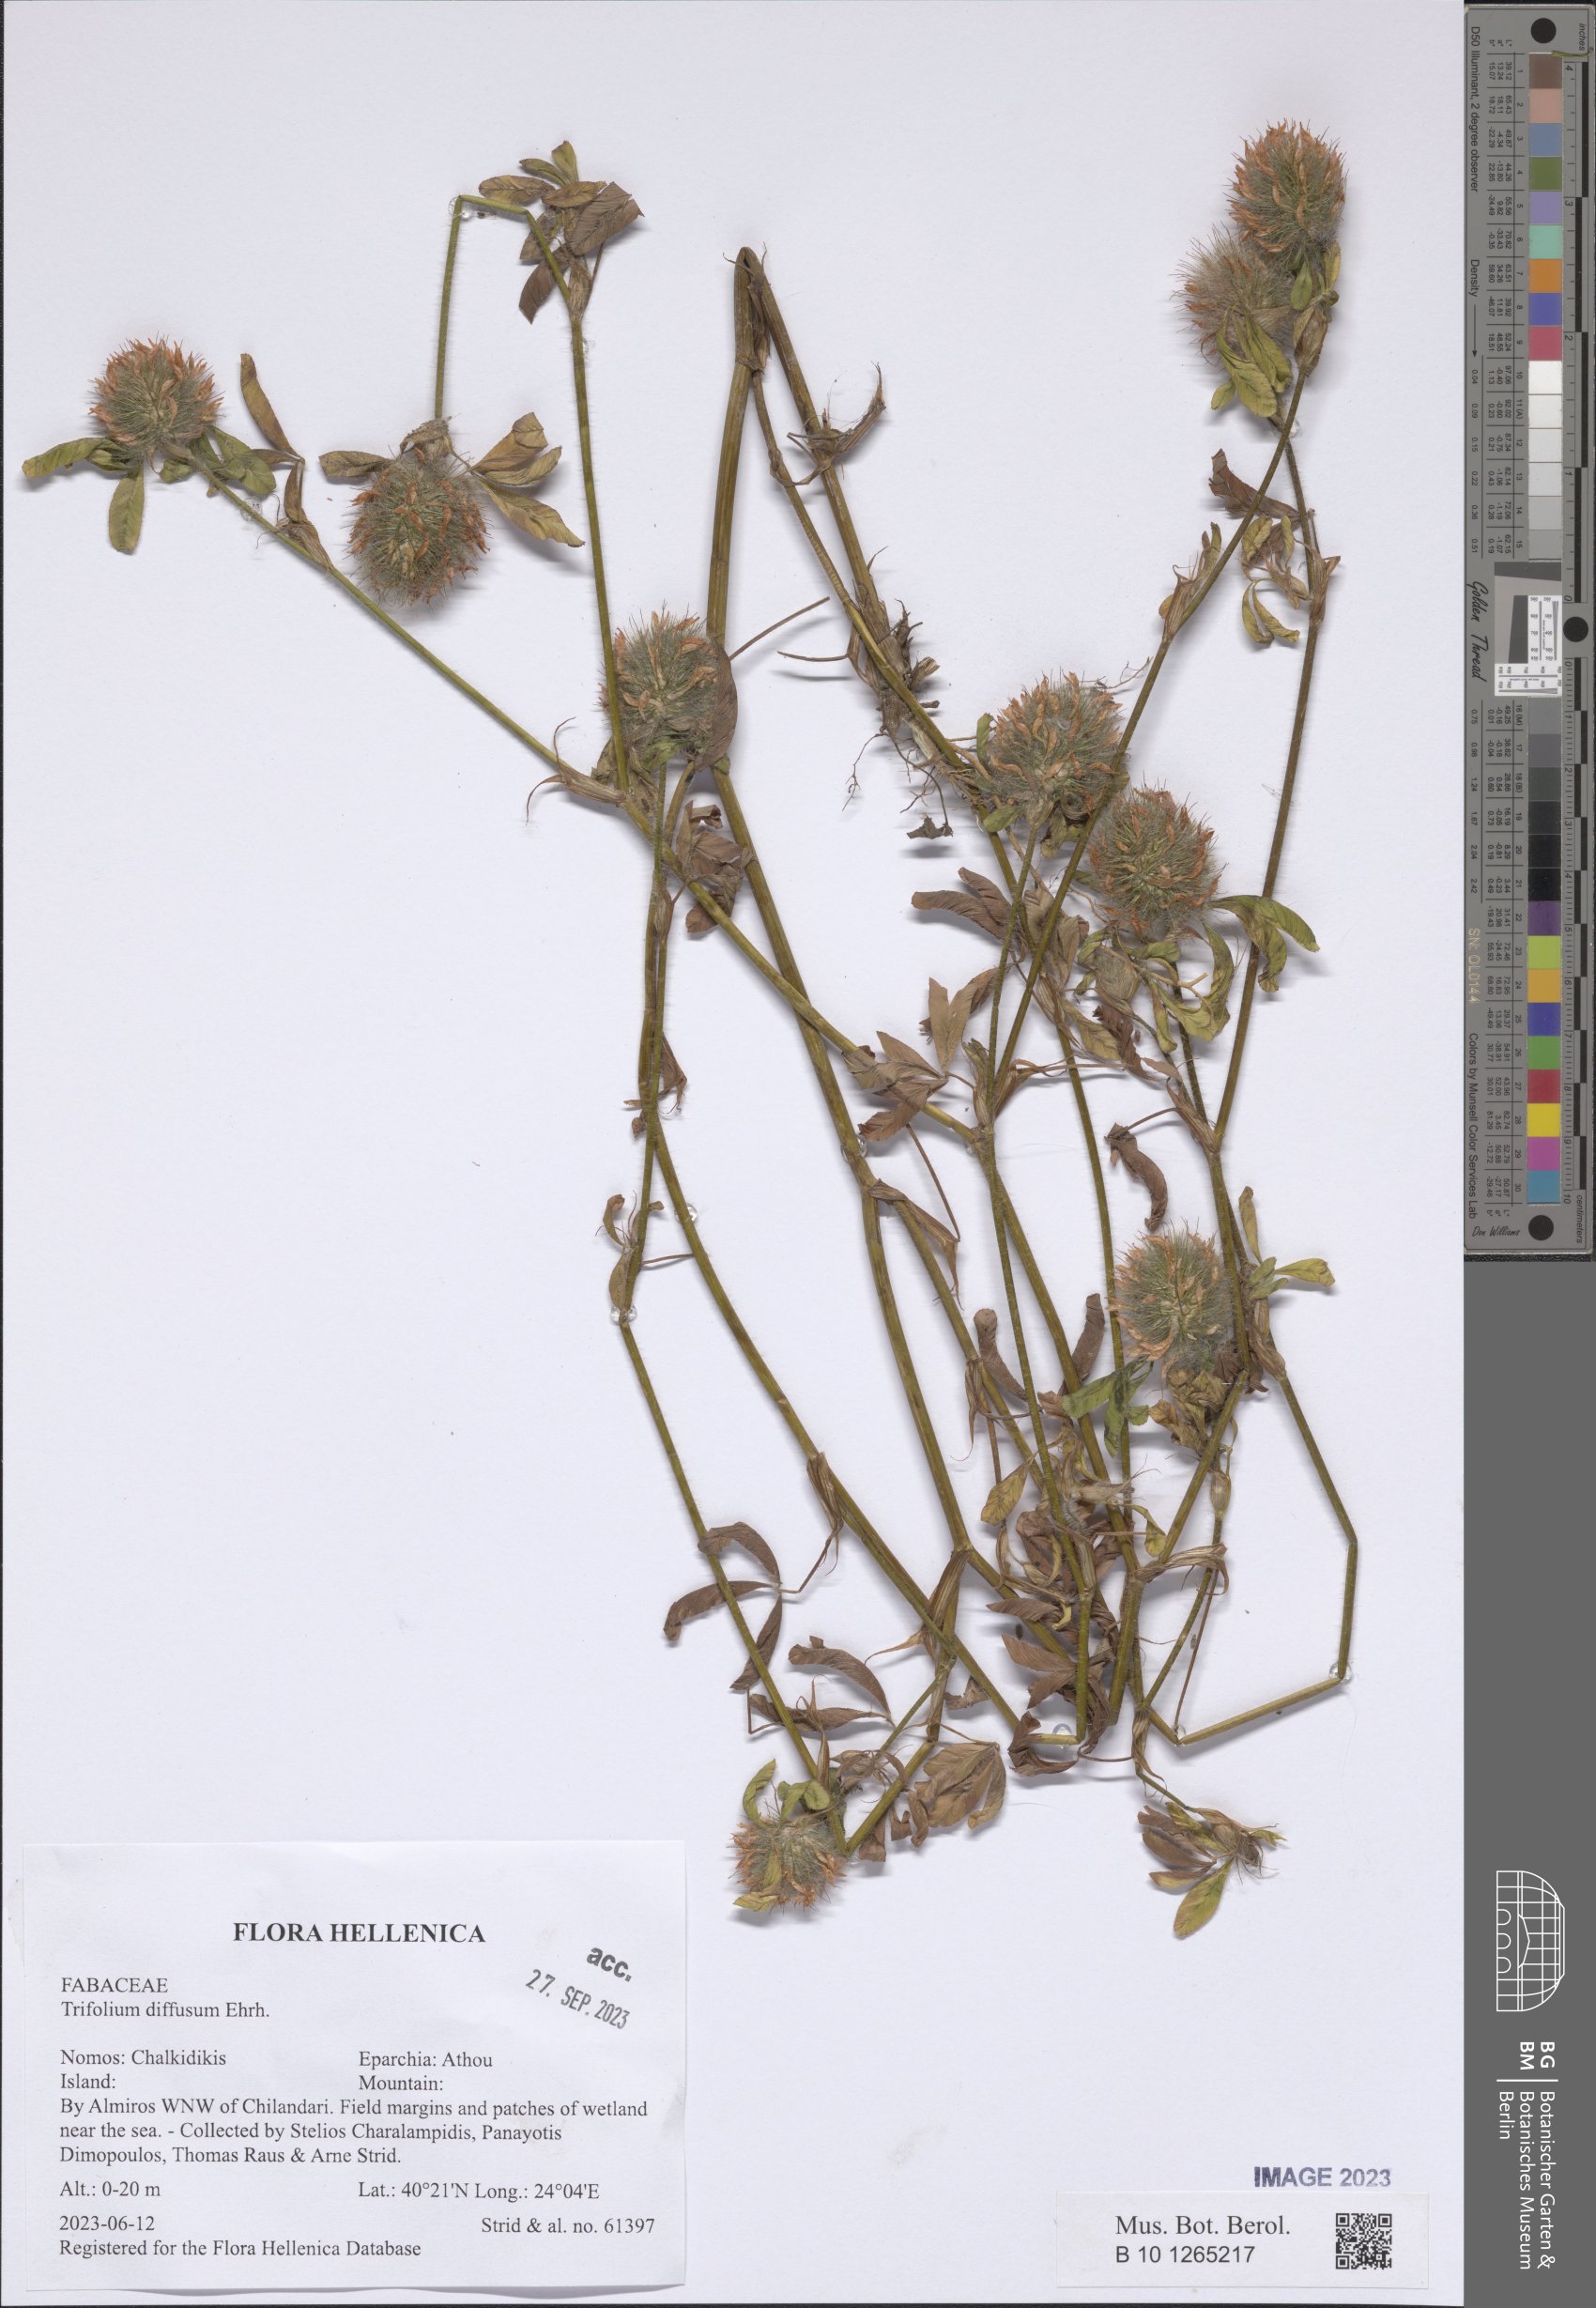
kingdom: Plantae
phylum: Tracheophyta
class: Magnoliopsida
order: Fabales
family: Fabaceae
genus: Trifolium
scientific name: Trifolium diffusum
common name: Diffuse clover
